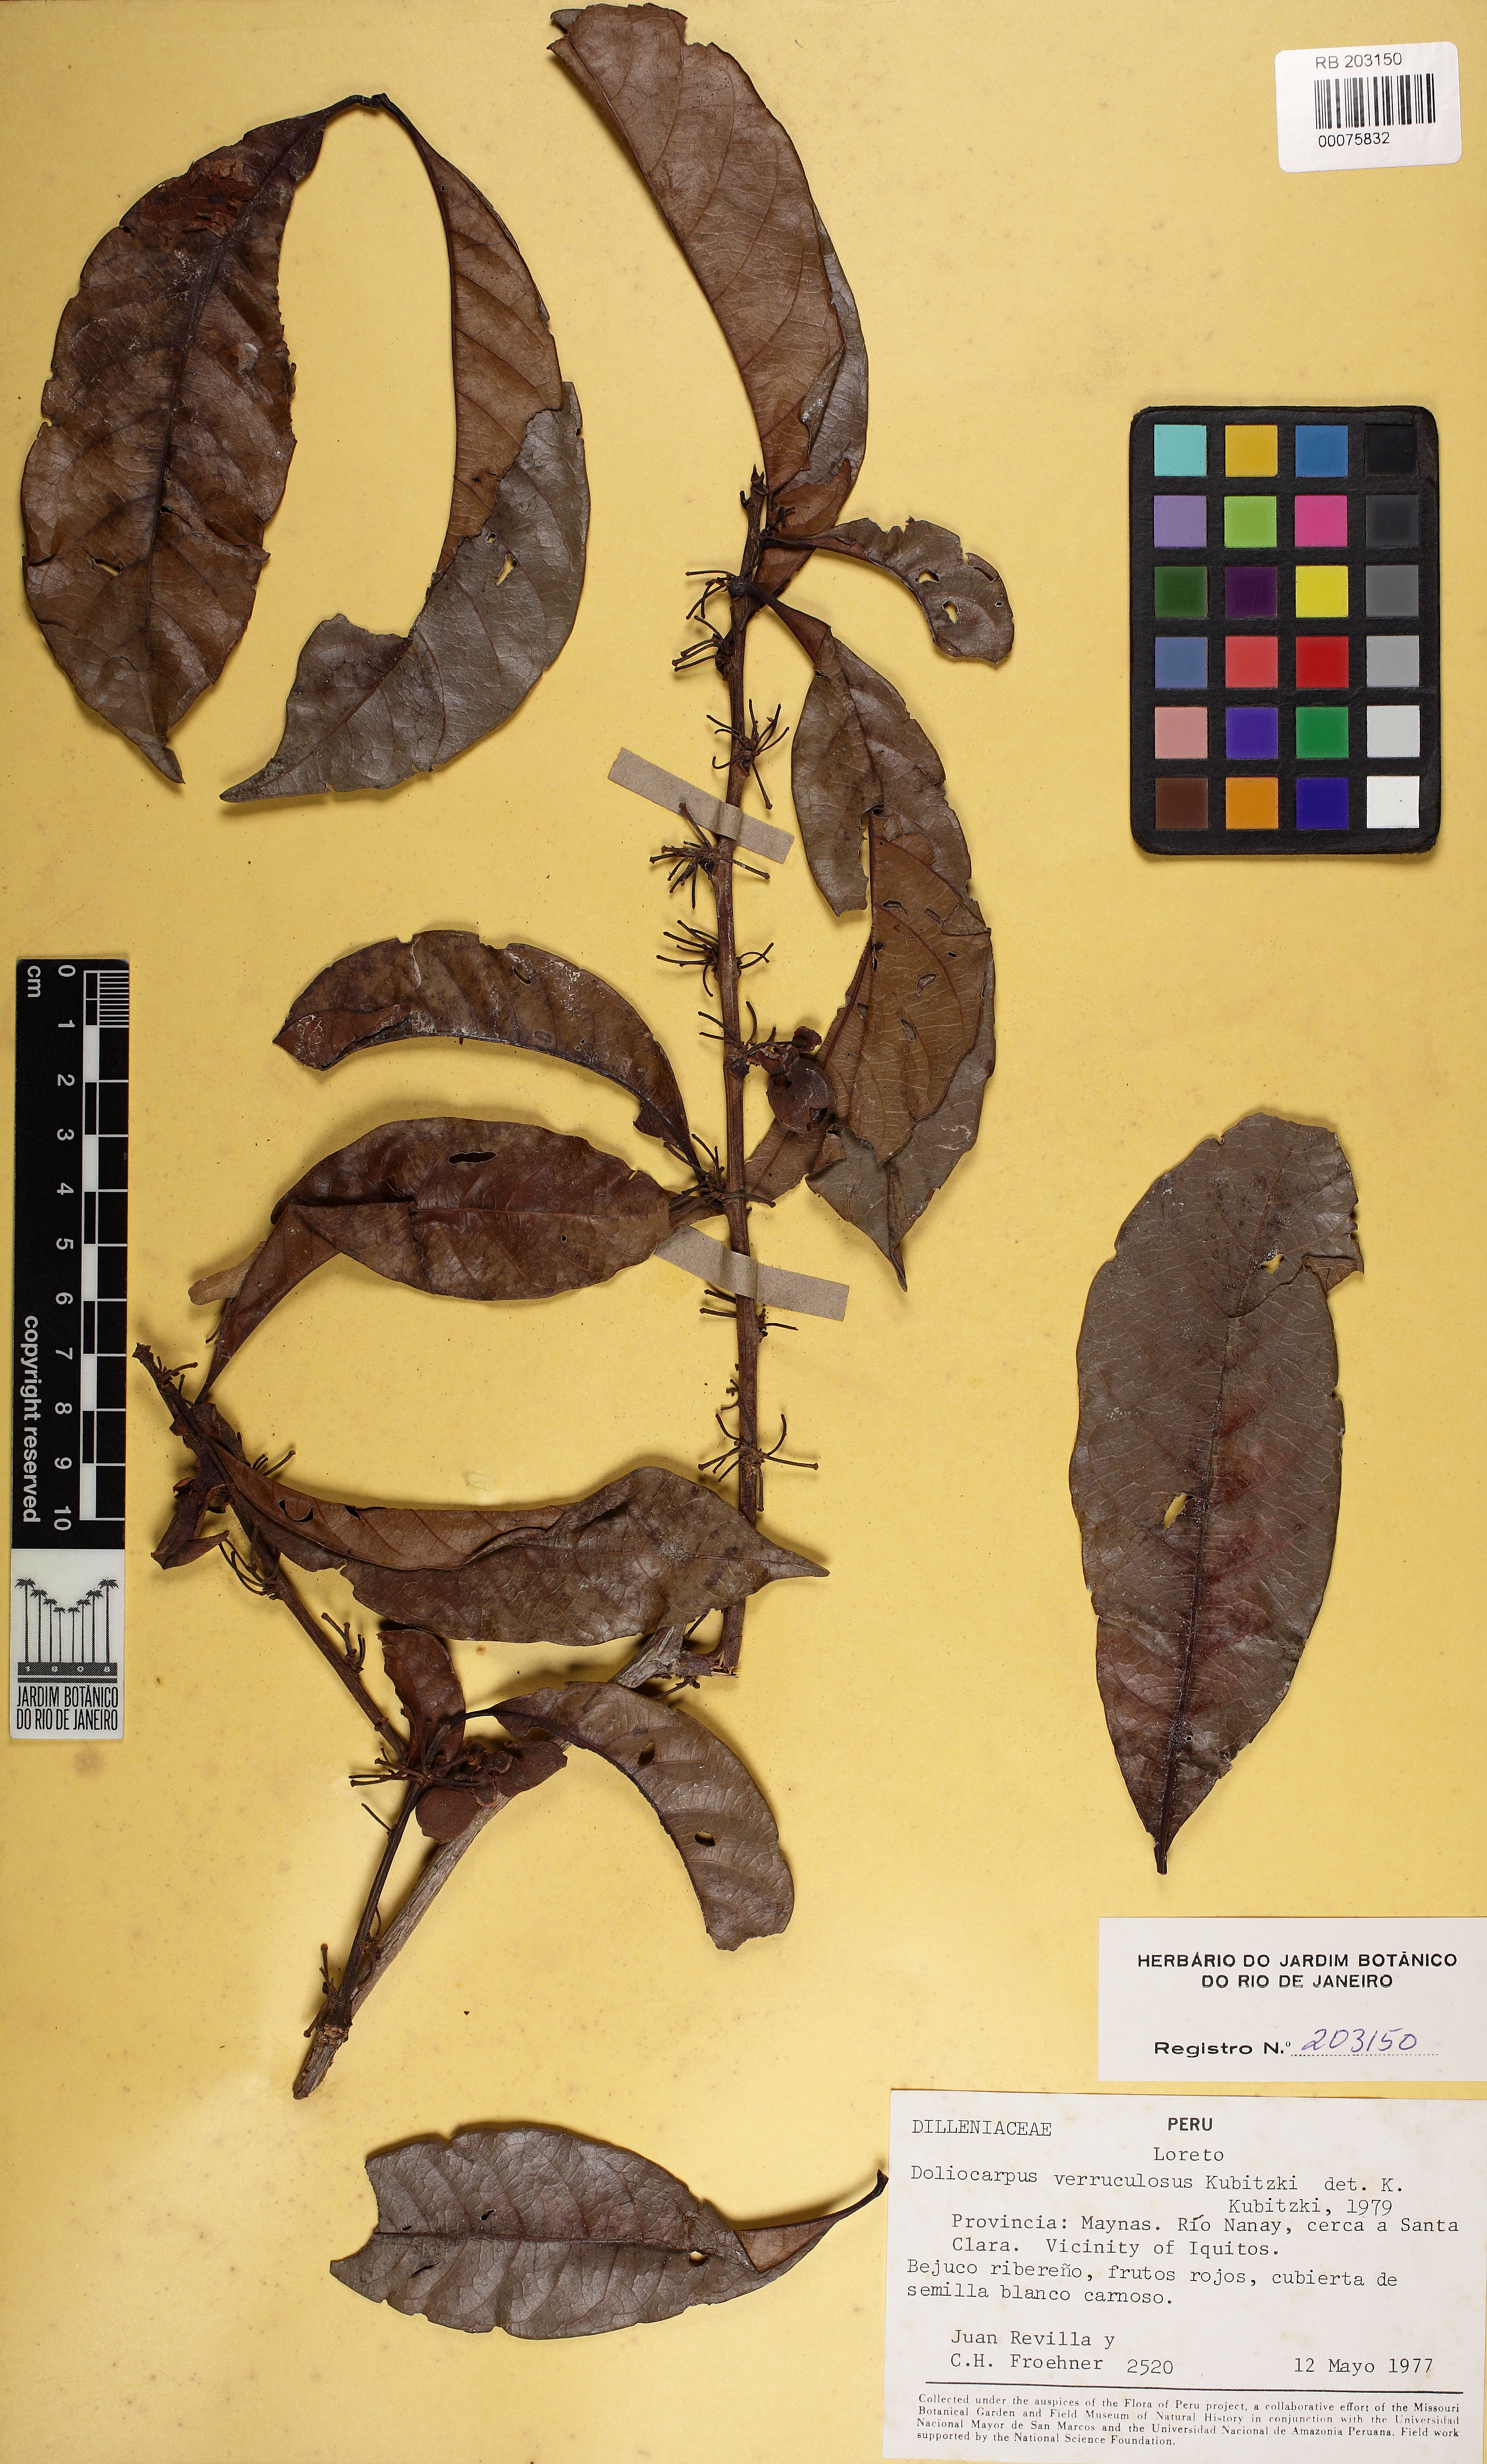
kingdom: Plantae
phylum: Tracheophyta
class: Magnoliopsida
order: Dilleniales
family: Dilleniaceae
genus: Doliocarpus
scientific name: Doliocarpus verruculosus
